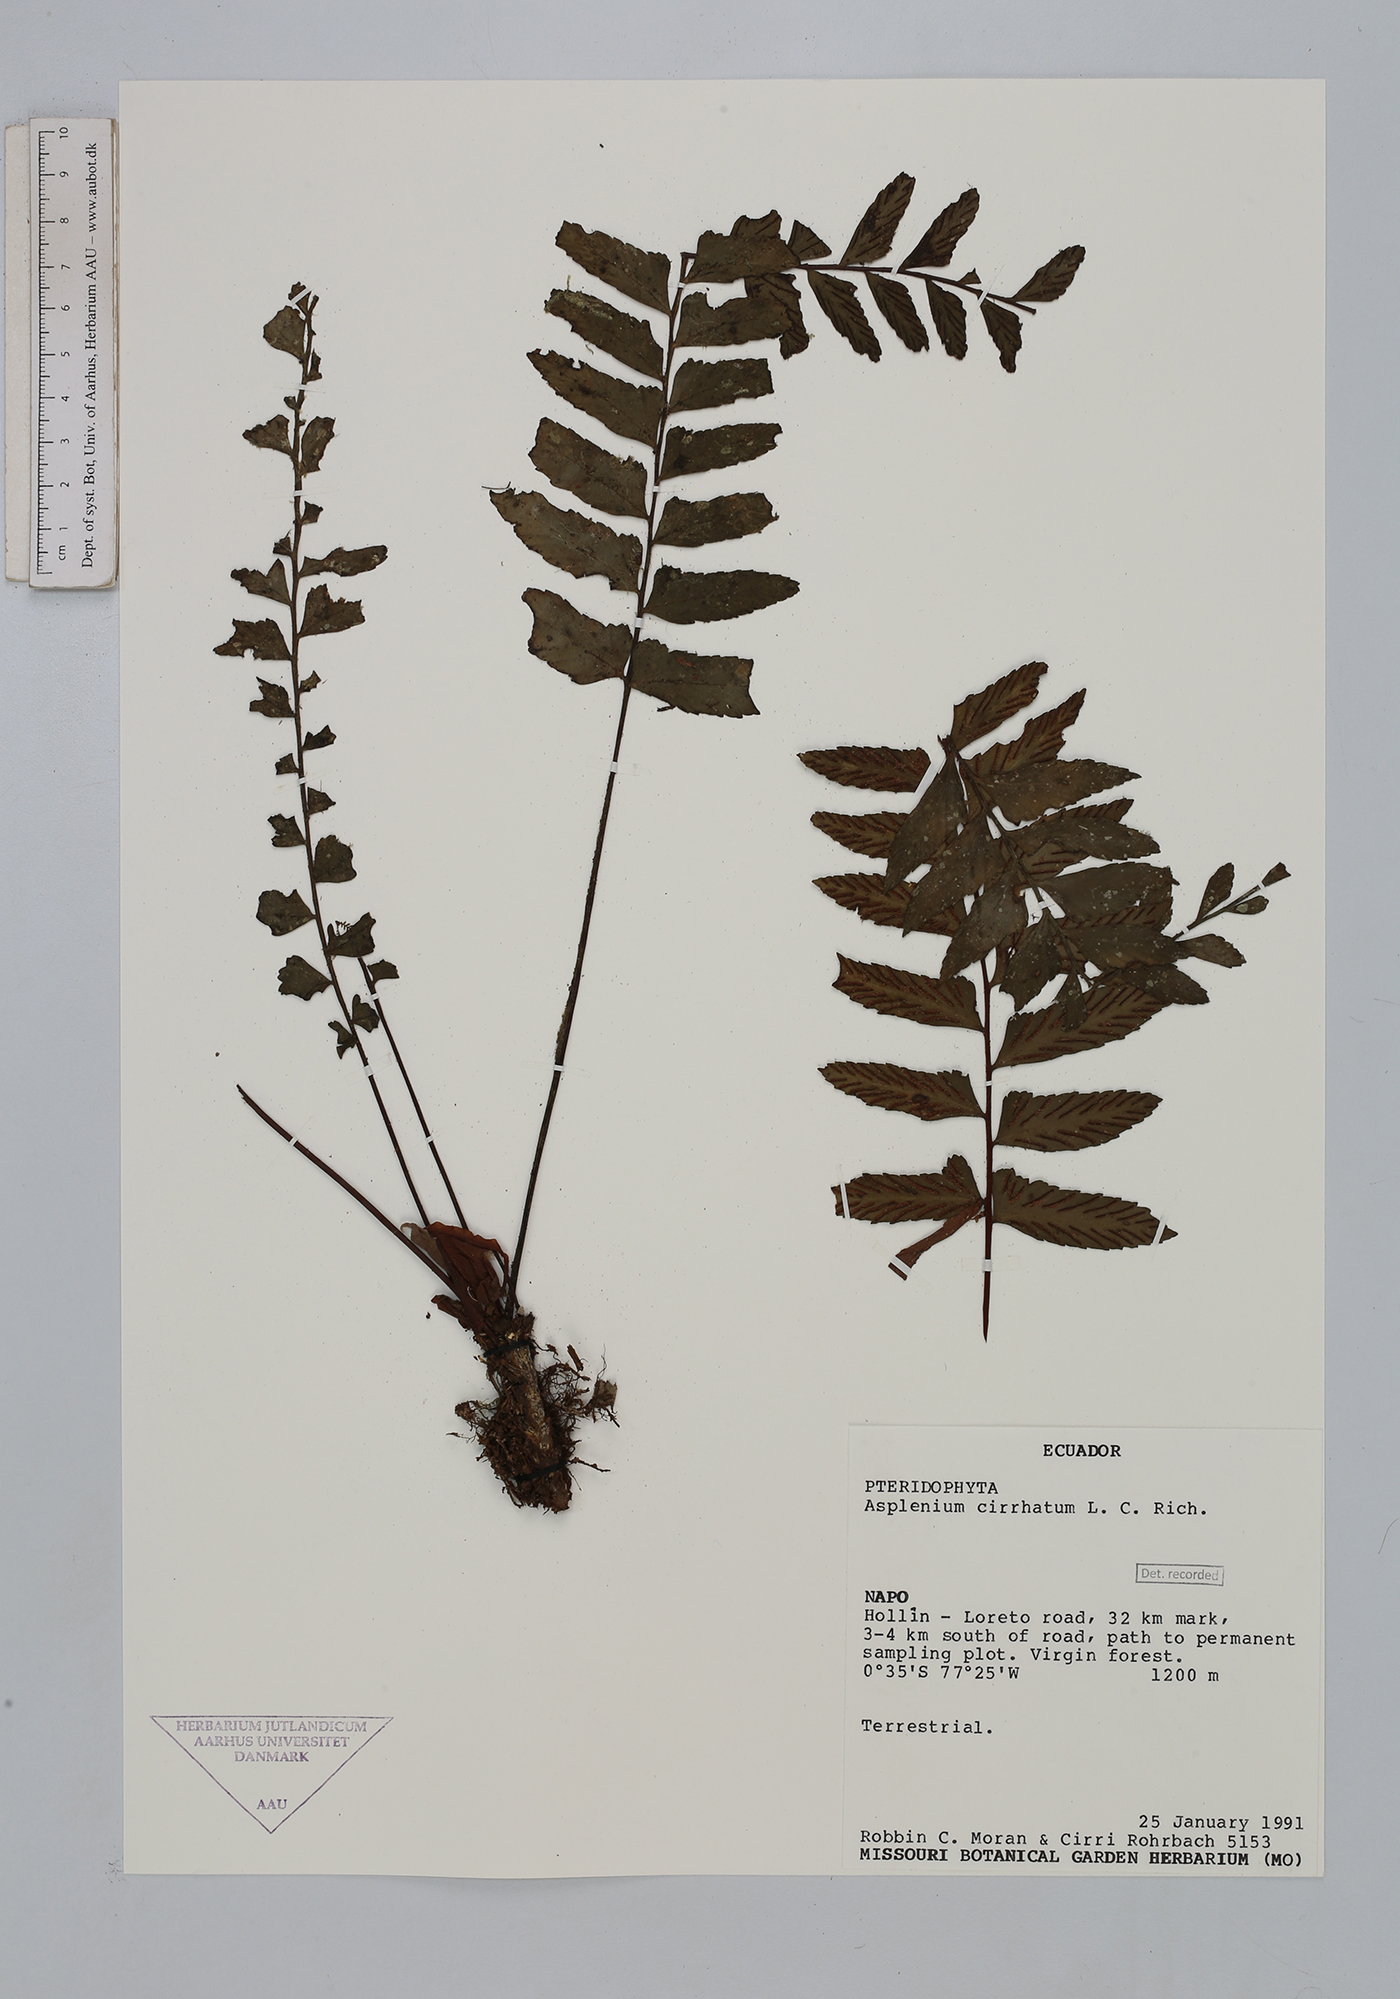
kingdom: Plantae
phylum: Tracheophyta
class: Polypodiopsida
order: Polypodiales
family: Aspleniaceae
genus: Asplenium
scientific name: Asplenium cirrhatum
